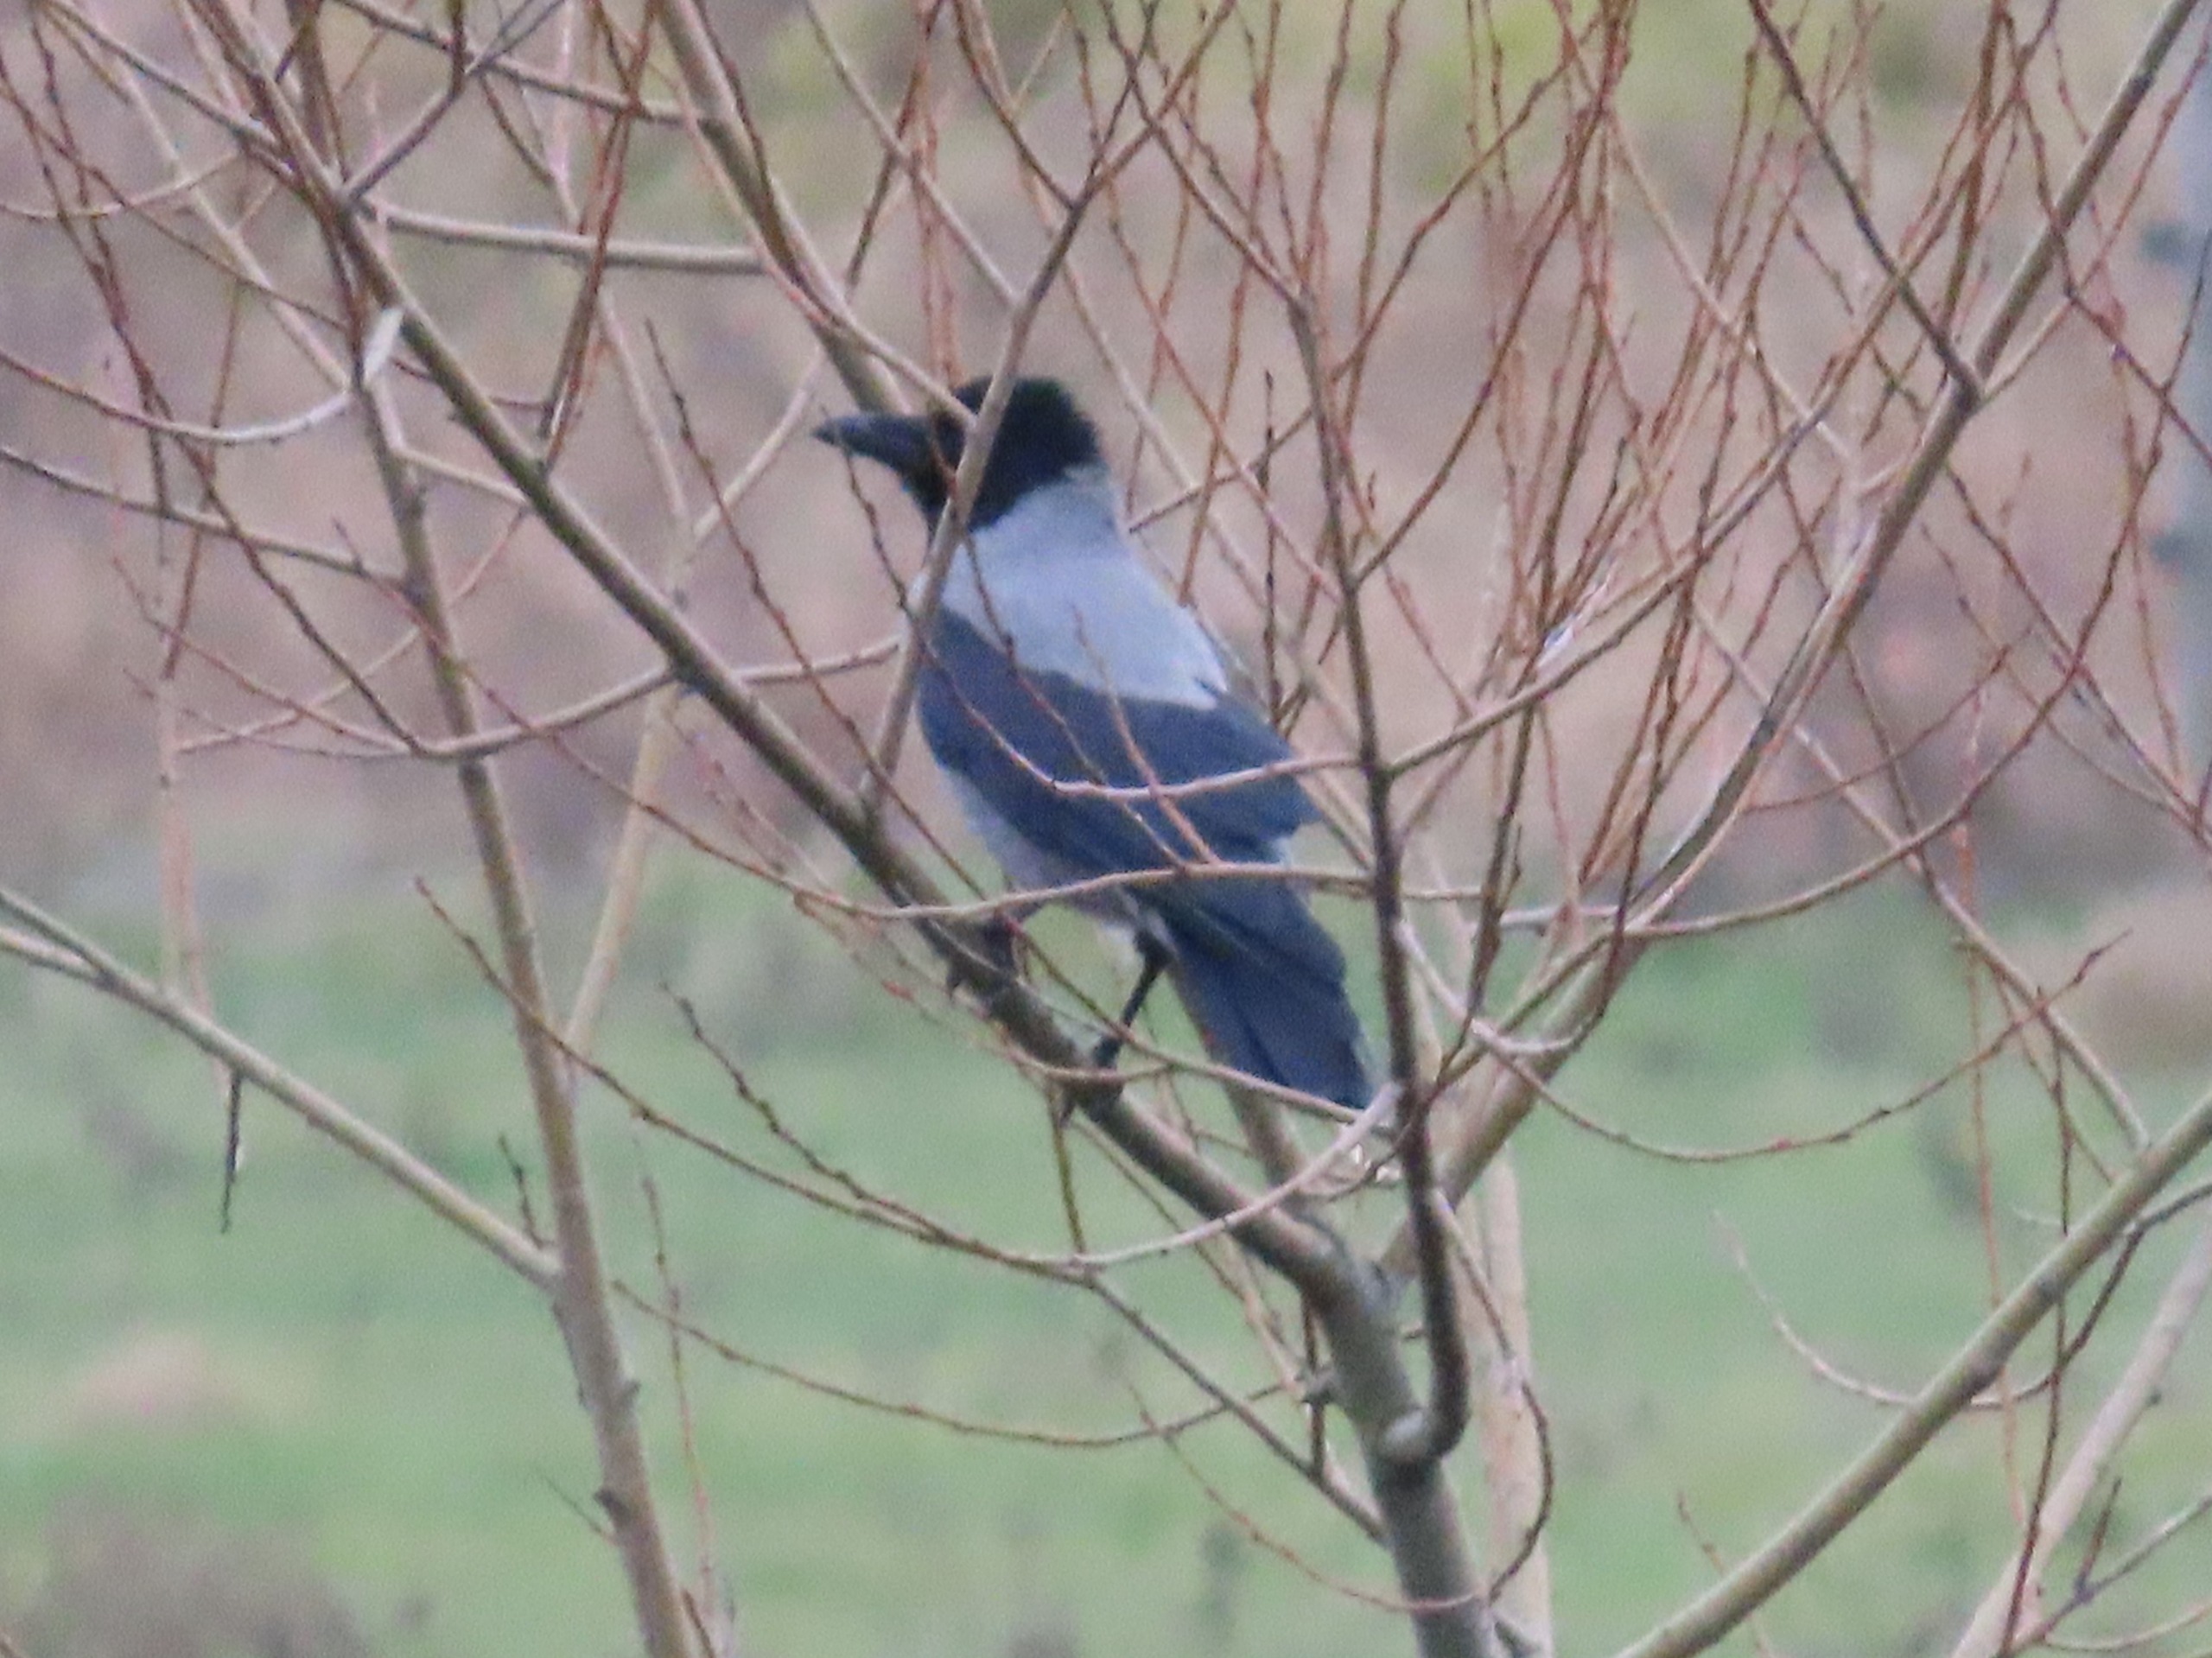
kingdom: Animalia
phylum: Chordata
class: Aves
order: Passeriformes
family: Corvidae
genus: Corvus
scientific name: Corvus cornix
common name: Gråkrage
